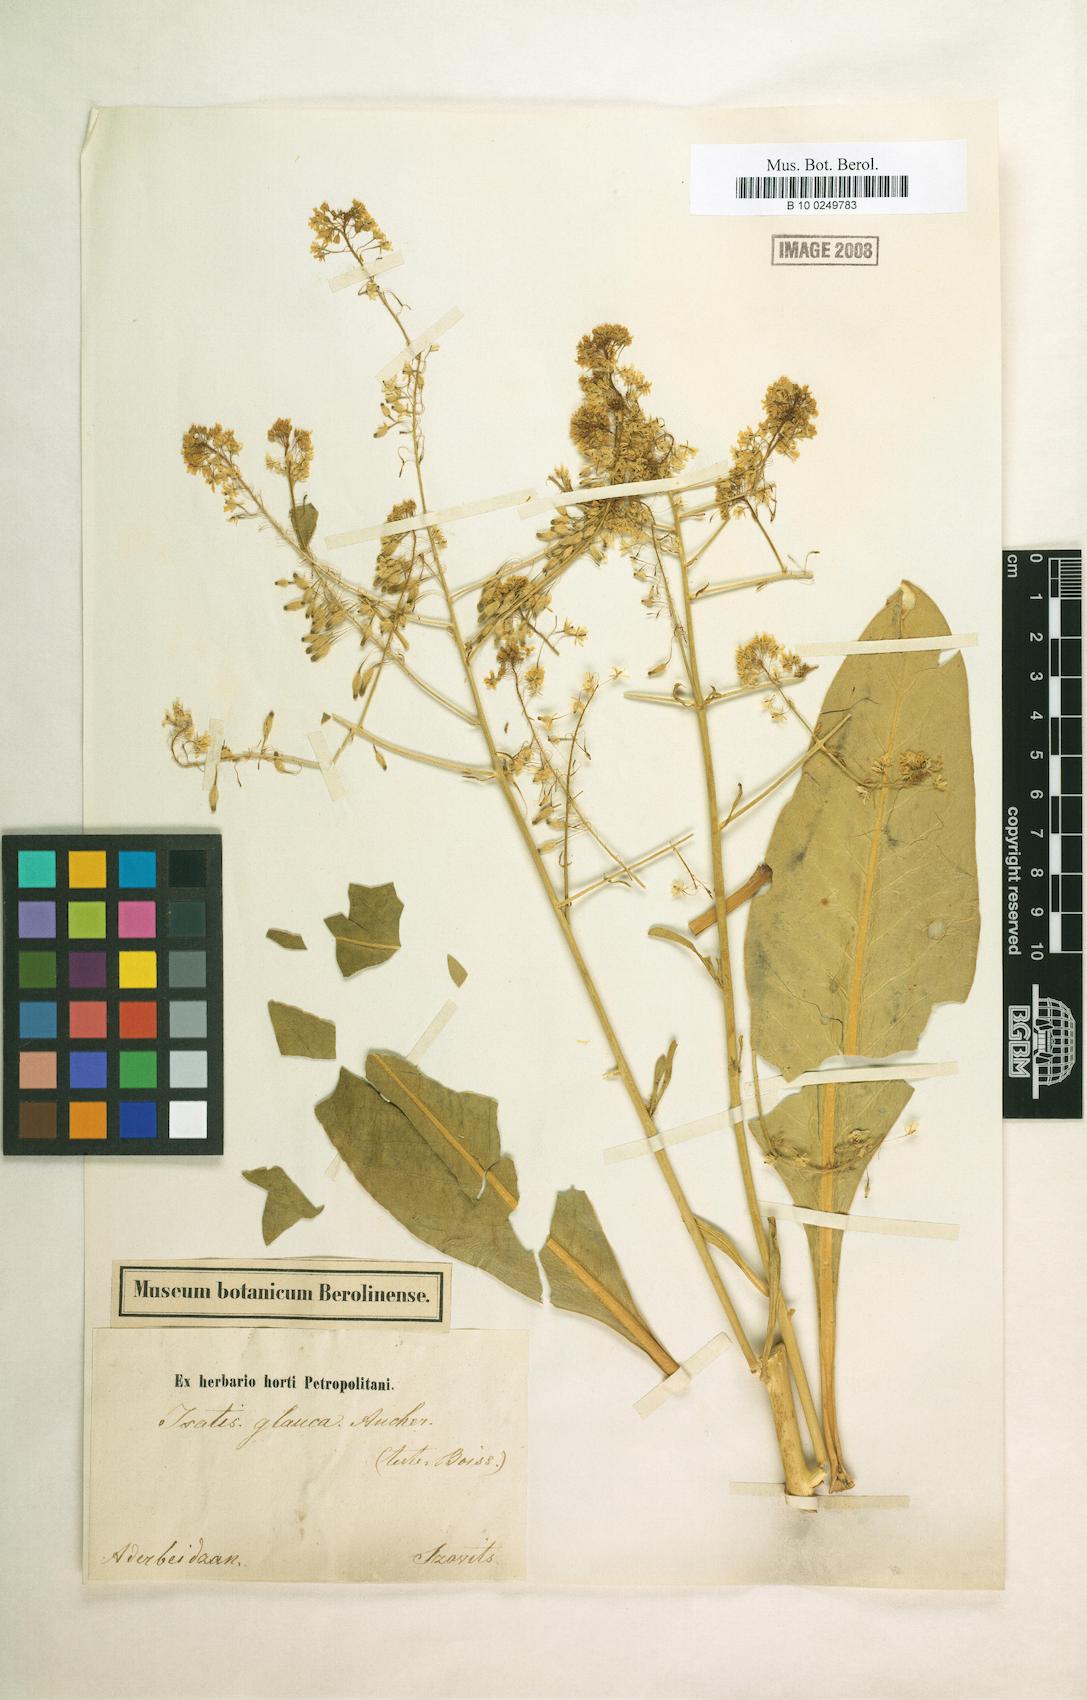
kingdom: Plantae
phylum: Tracheophyta
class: Magnoliopsida
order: Brassicales
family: Brassicaceae
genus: Isatis
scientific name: Isatis glauca
